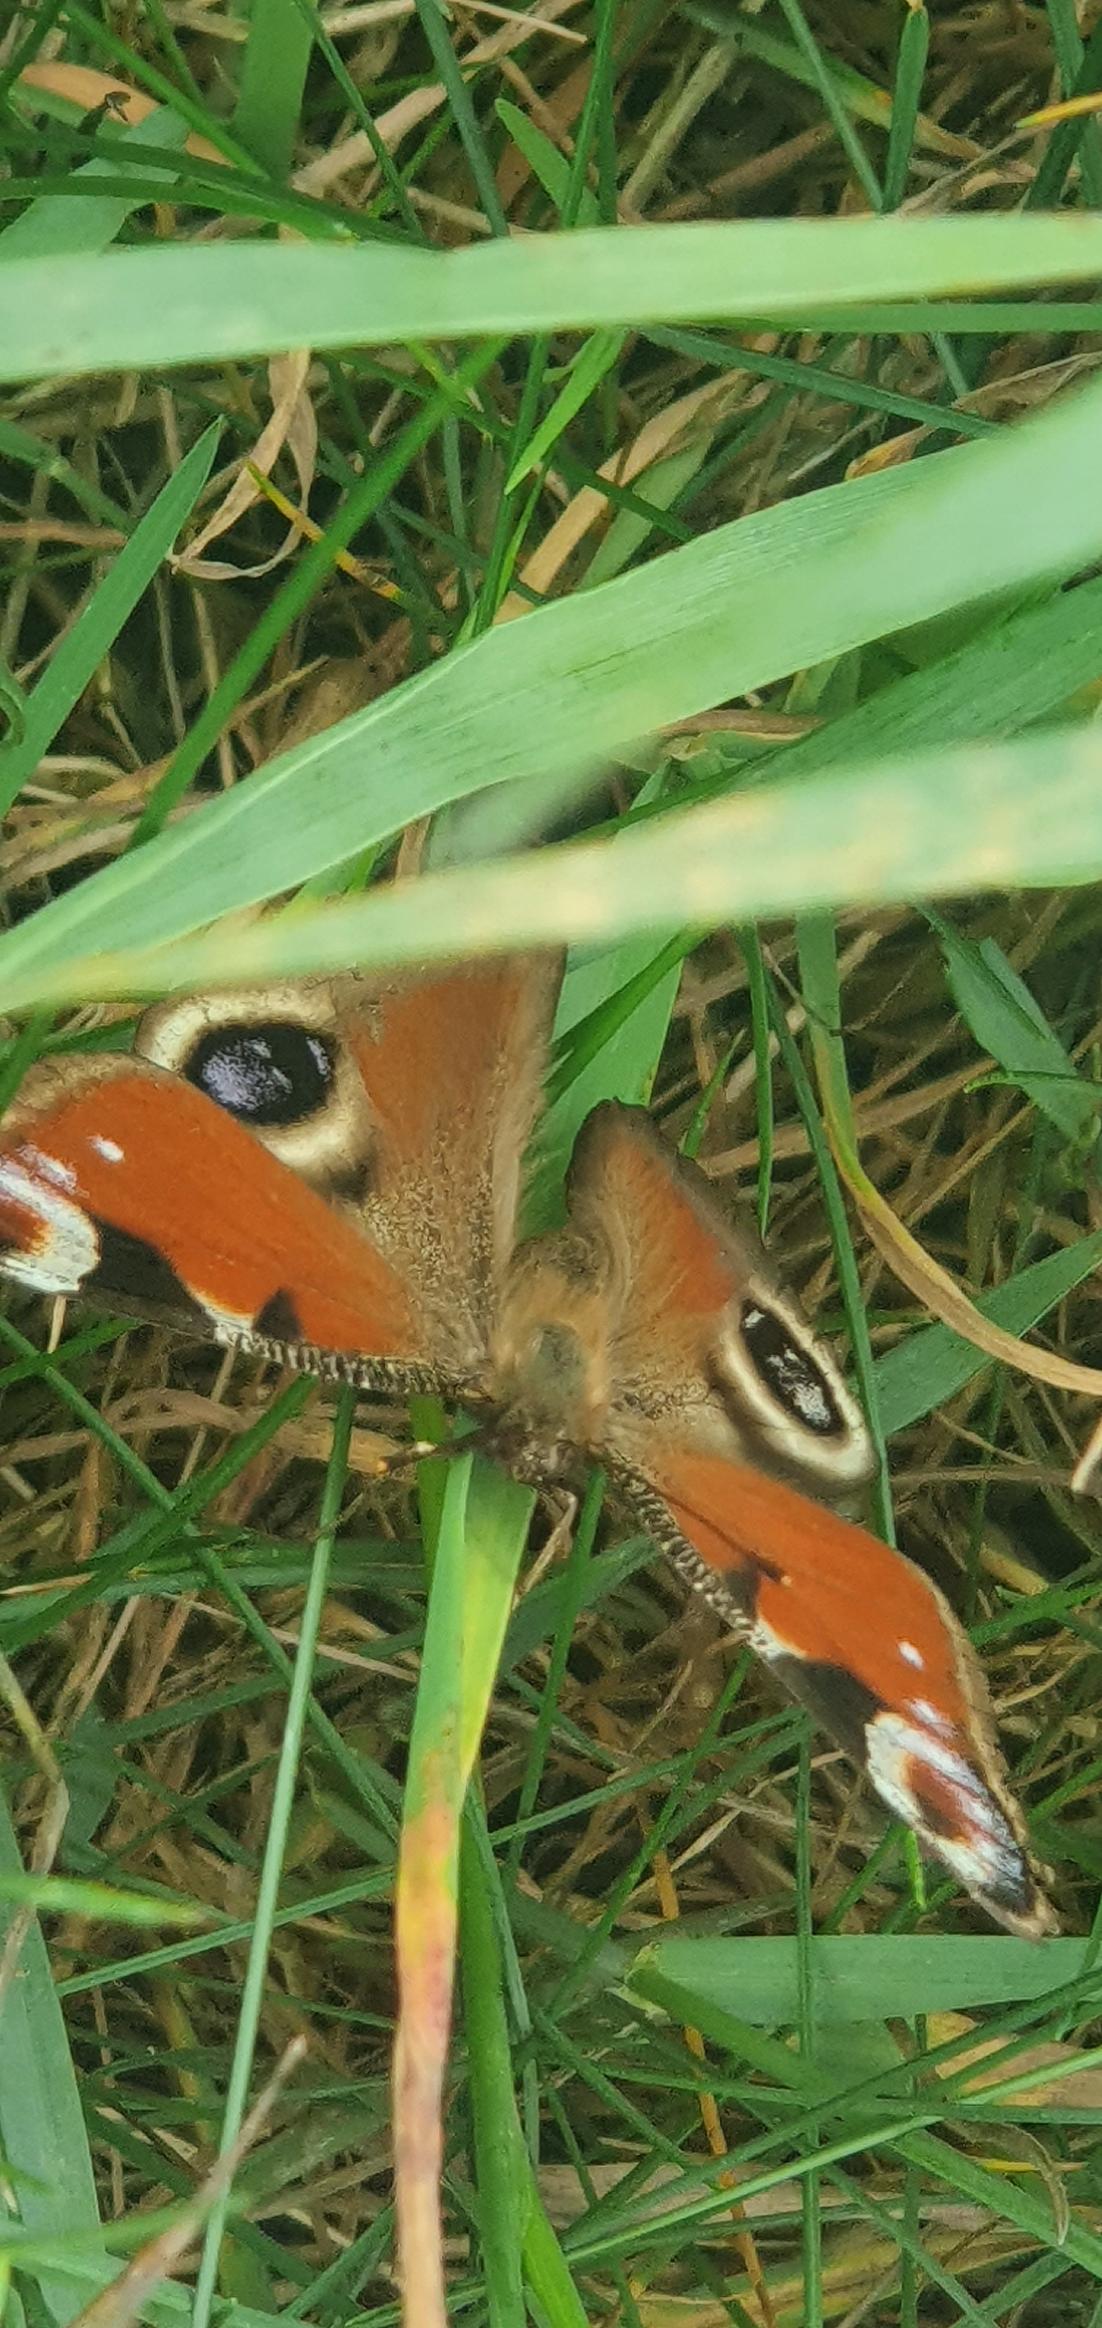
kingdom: Animalia
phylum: Arthropoda
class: Insecta
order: Lepidoptera
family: Nymphalidae
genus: Aglais
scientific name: Aglais io
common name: Dagpåfugleøje
